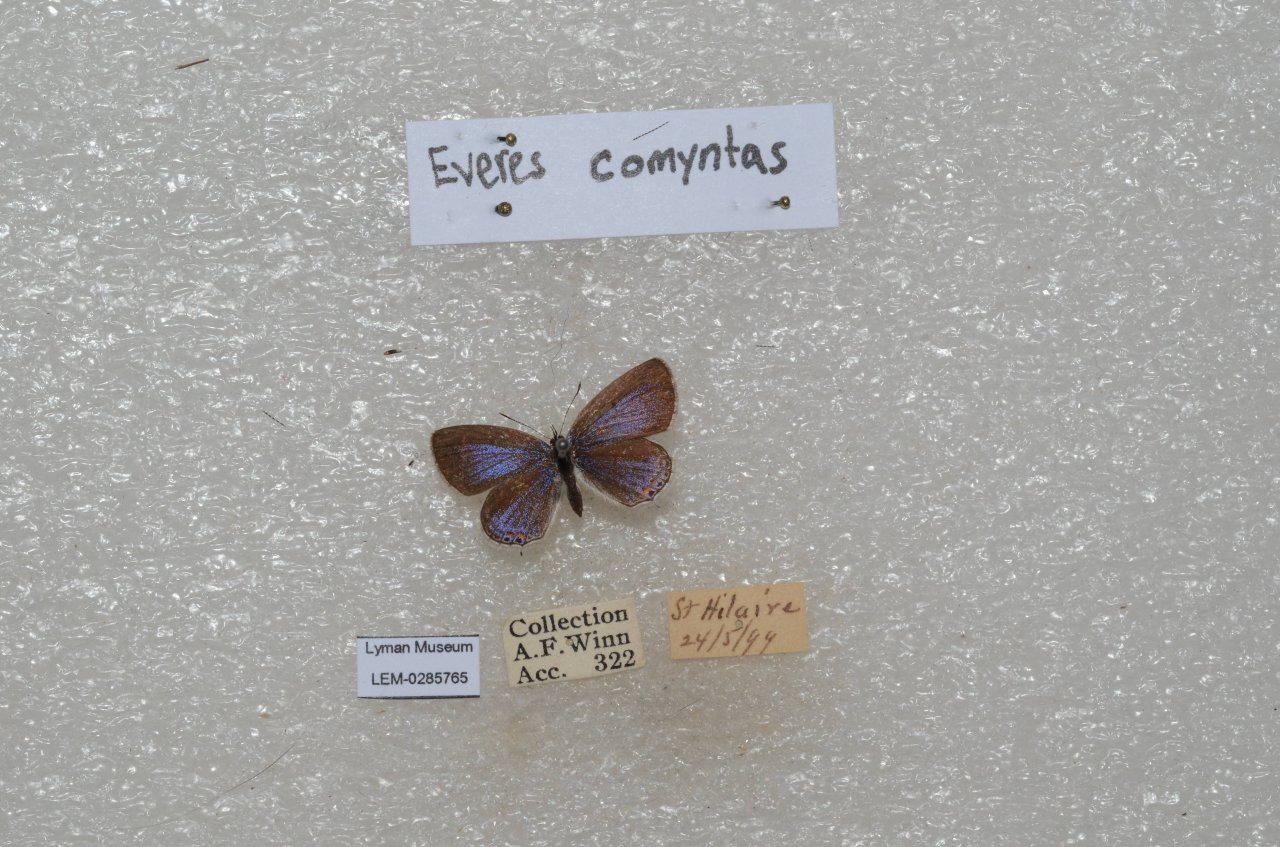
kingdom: Animalia
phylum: Arthropoda
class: Insecta
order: Lepidoptera
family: Lycaenidae
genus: Elkalyce
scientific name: Elkalyce comyntas
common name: Eastern Tailed-Blue
